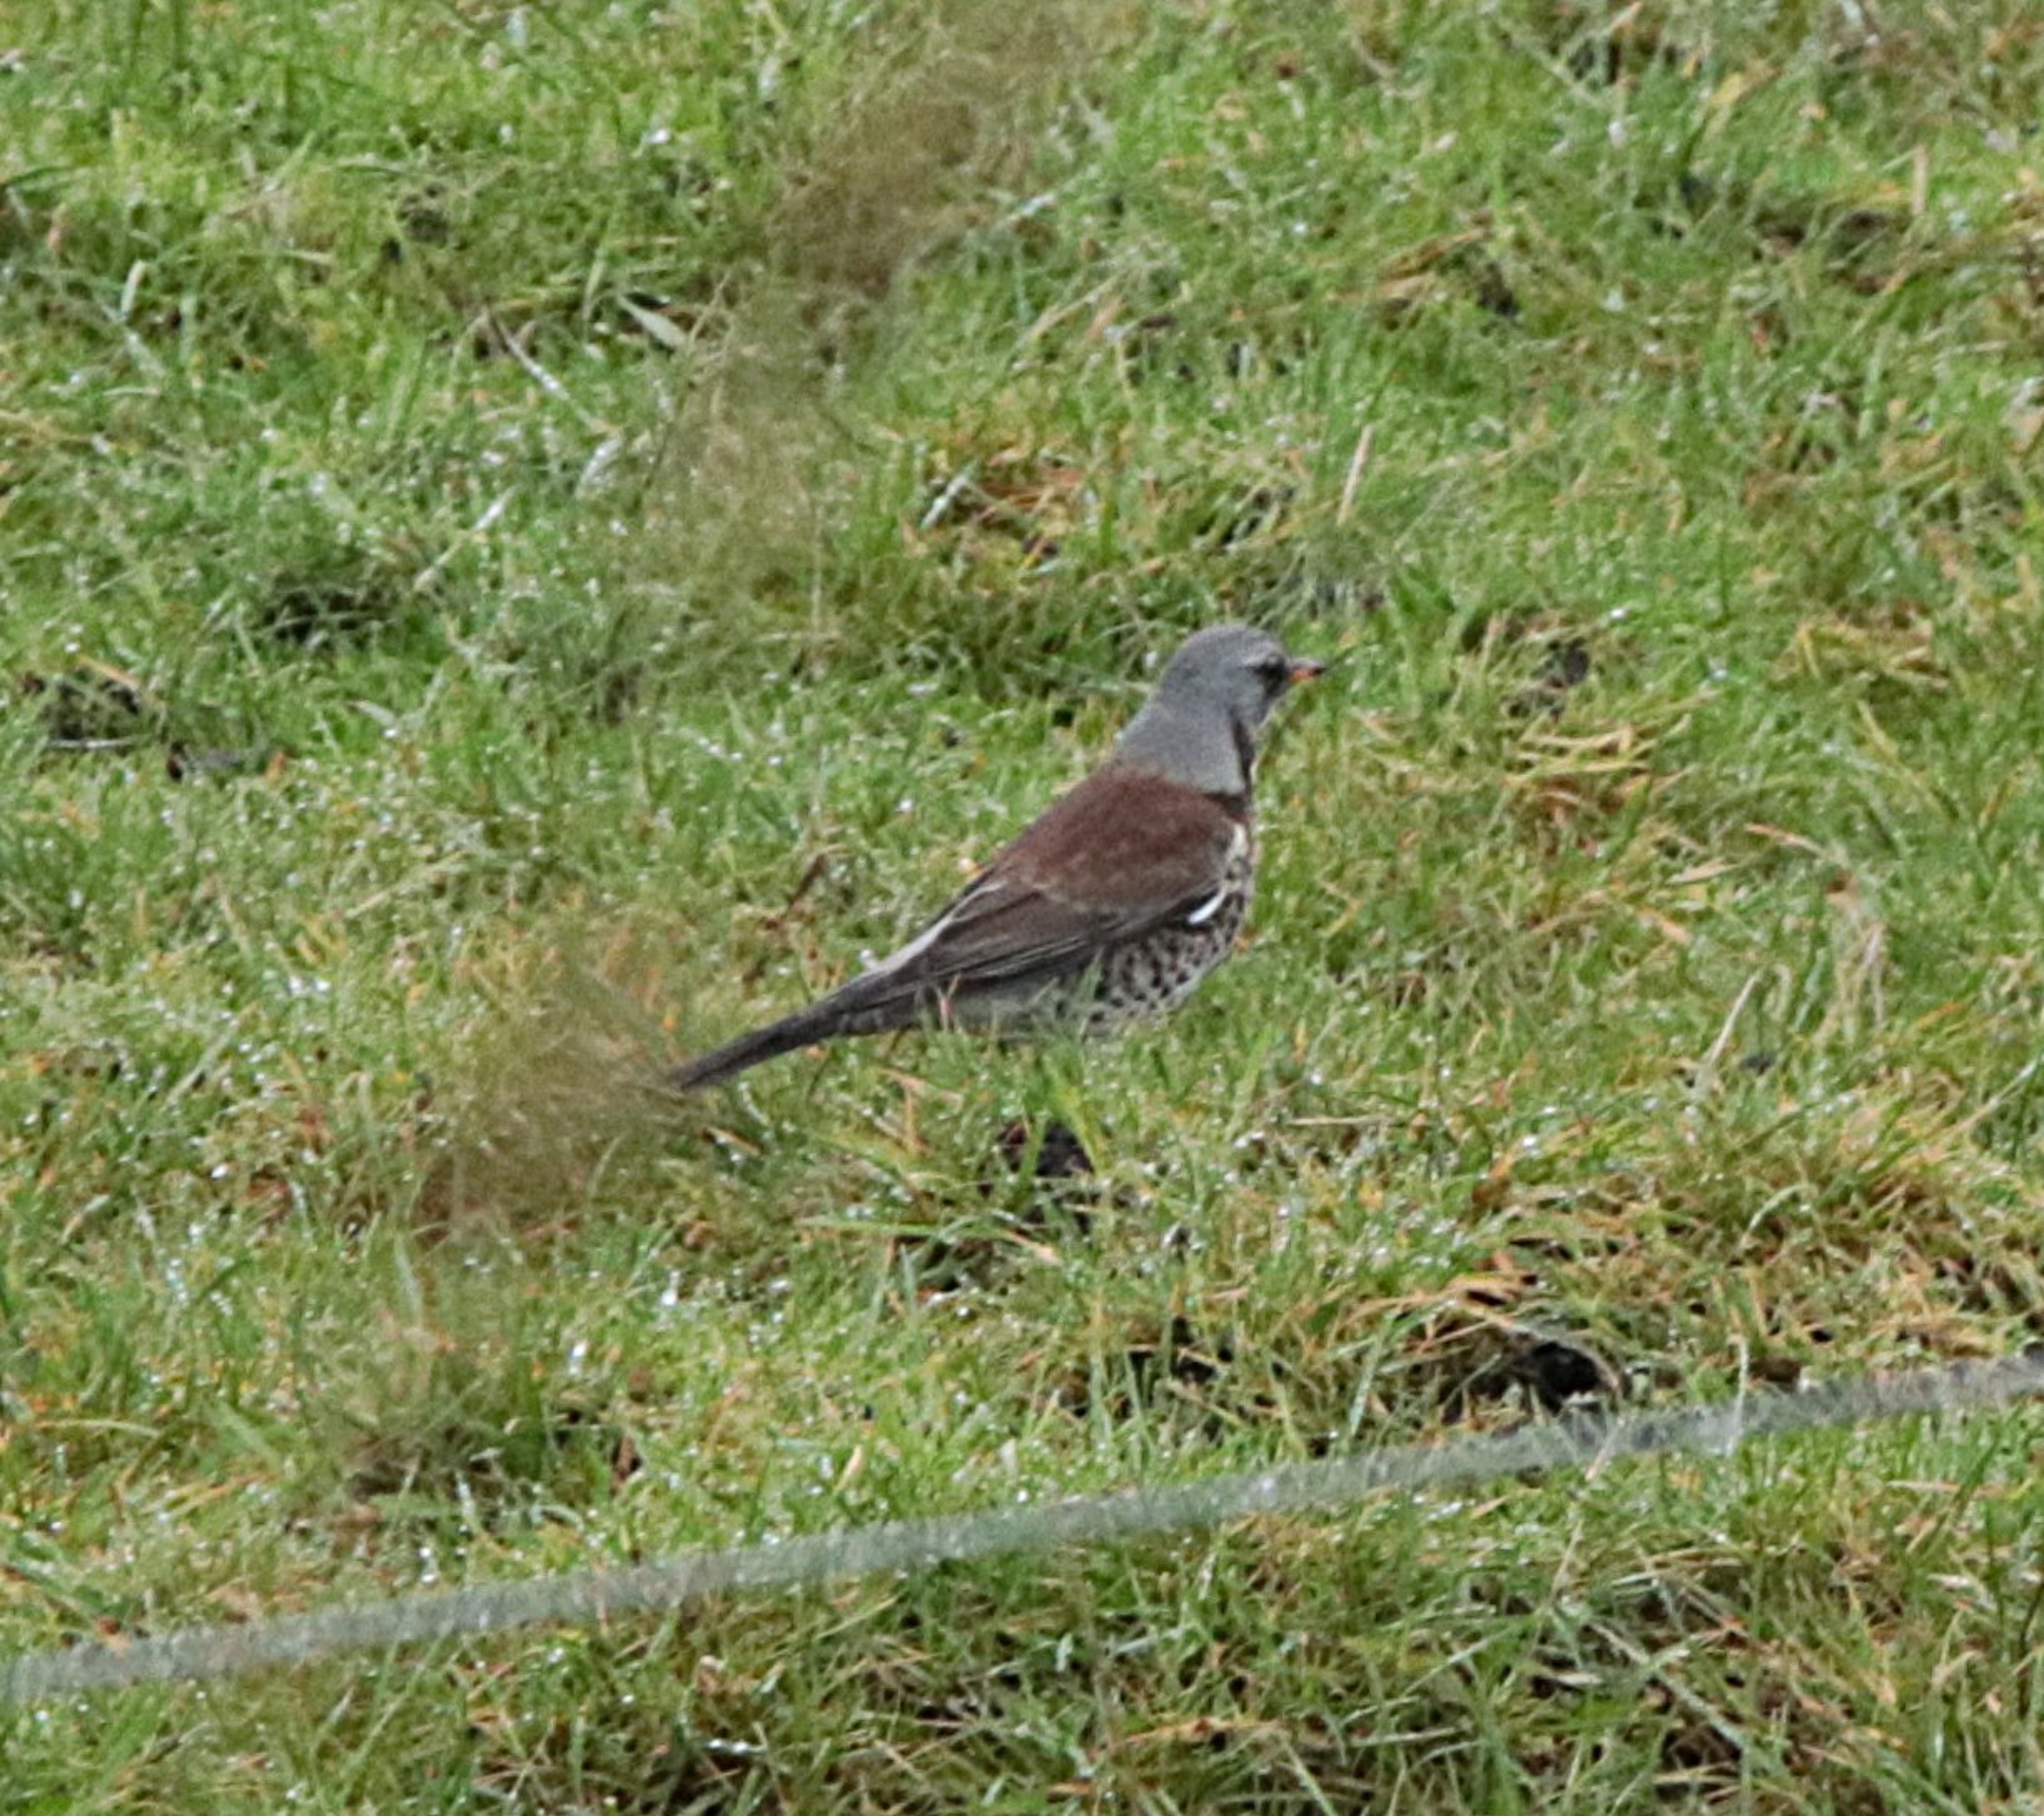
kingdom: Animalia
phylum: Chordata
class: Aves
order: Passeriformes
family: Turdidae
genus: Turdus
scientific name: Turdus pilaris
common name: Sjagger
